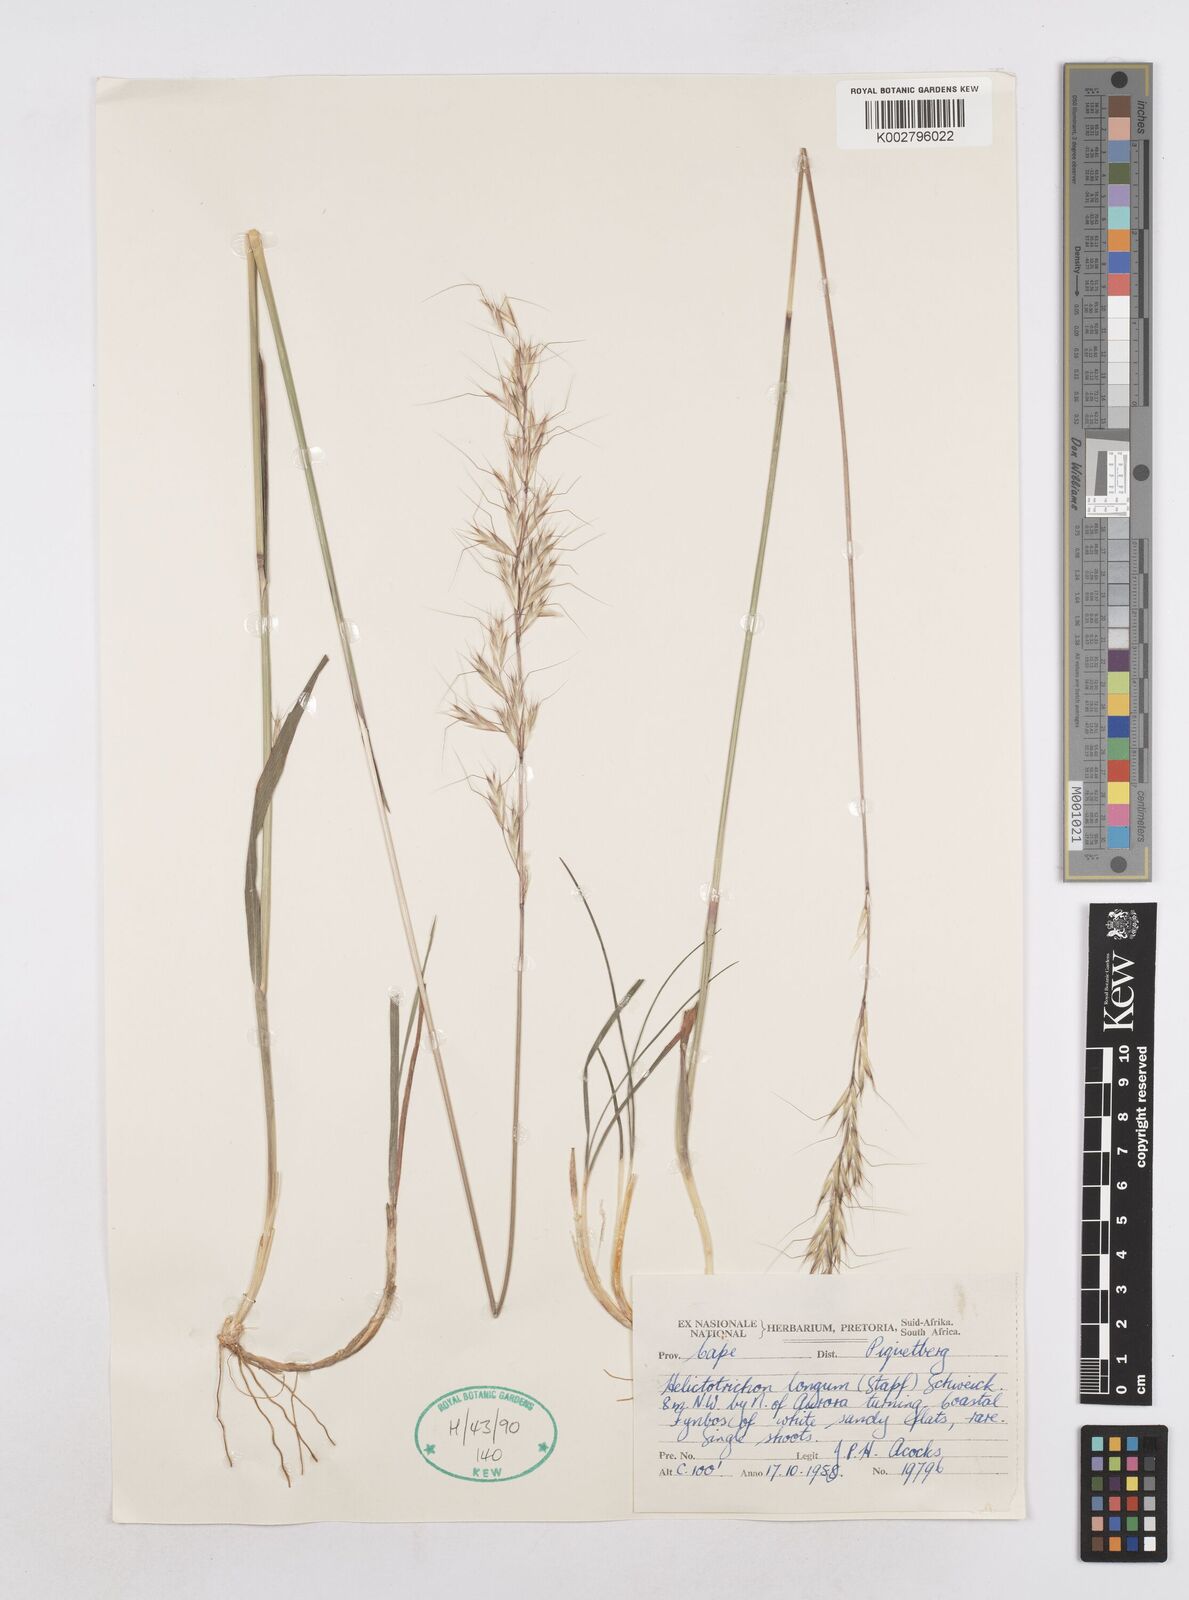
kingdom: Plantae
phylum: Tracheophyta
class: Liliopsida
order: Poales
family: Poaceae
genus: Trisetopsis
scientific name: Trisetopsis longa
